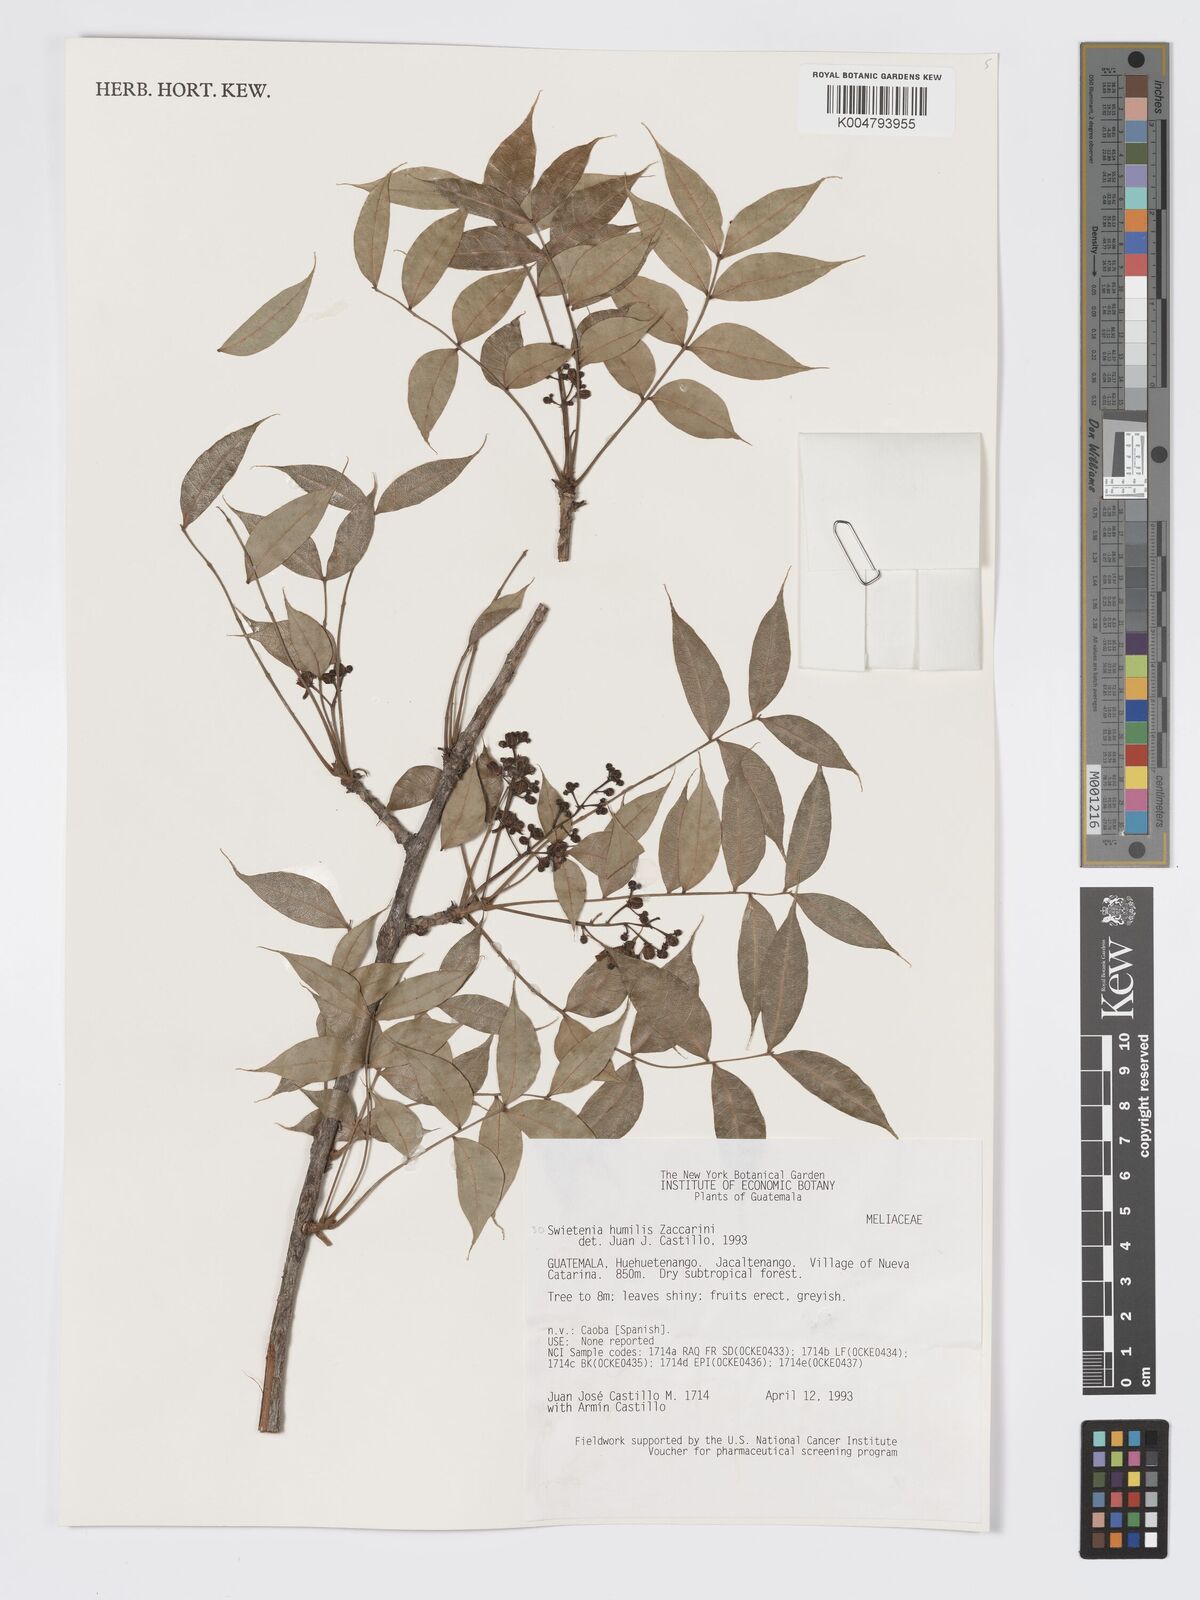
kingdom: Plantae
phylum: Tracheophyta
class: Magnoliopsida
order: Sapindales
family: Meliaceae
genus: Swietenia
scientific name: Swietenia humilis
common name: Pacific coast mahogany
